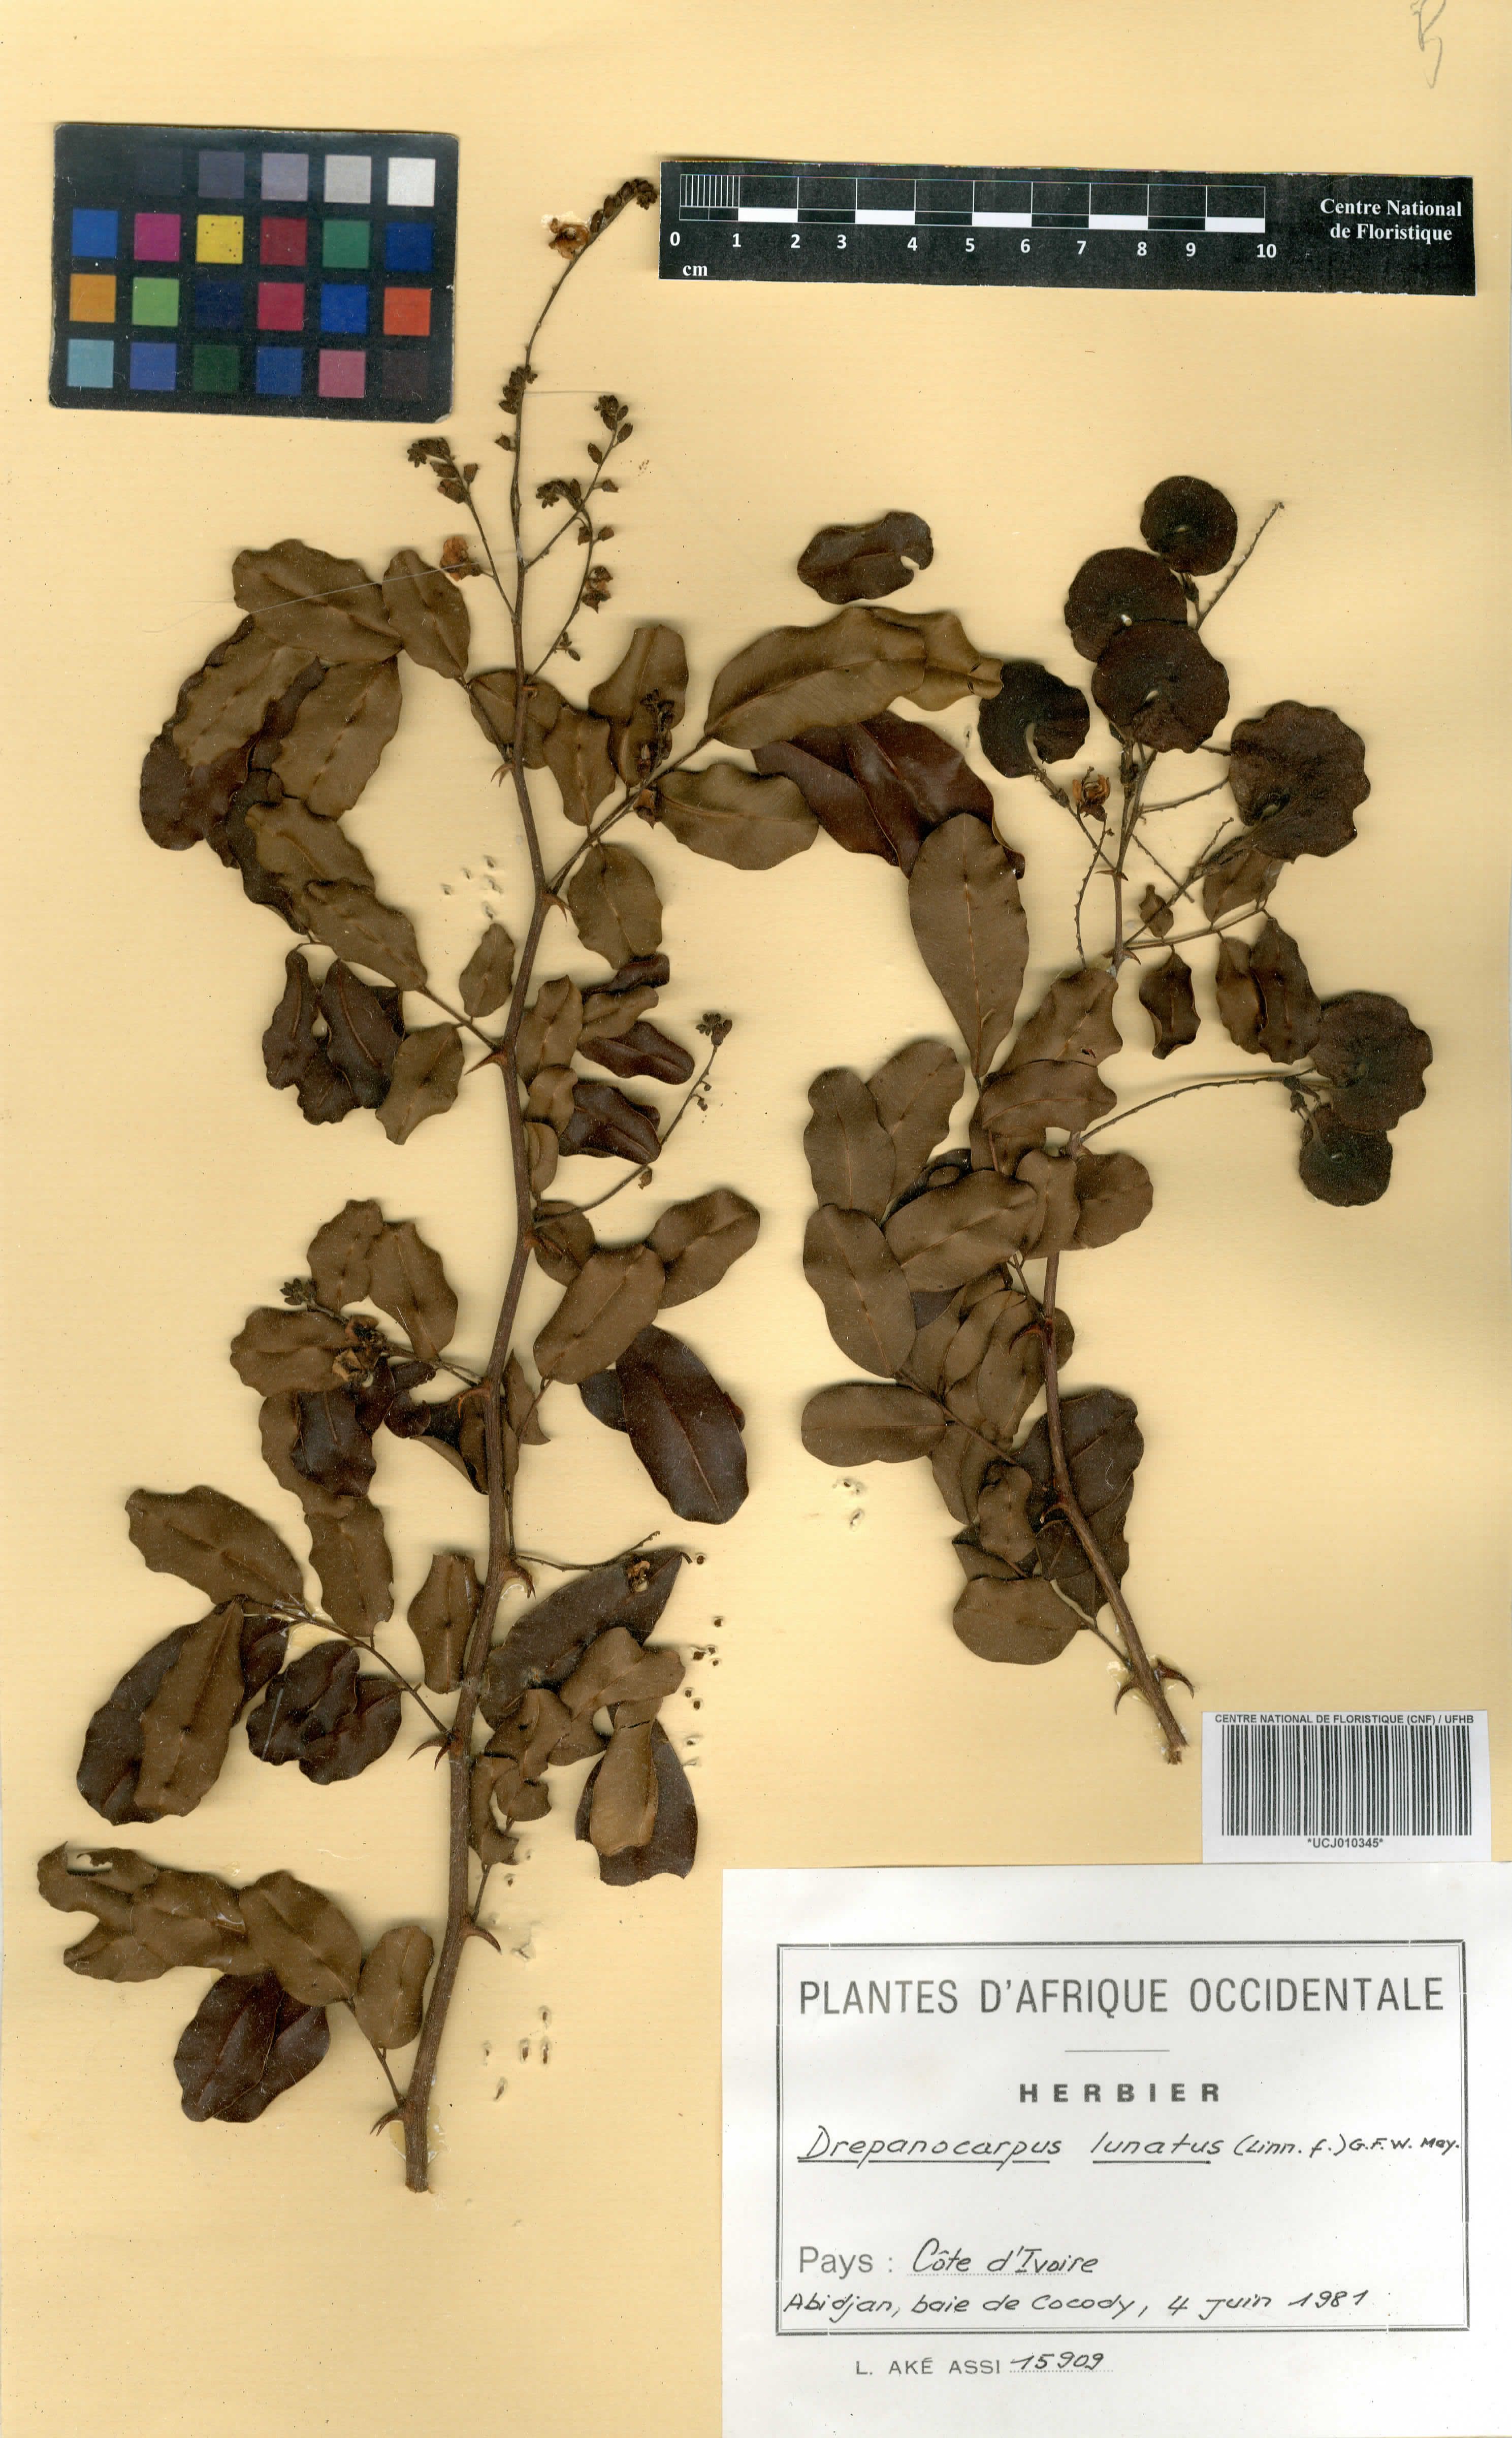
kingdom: Plantae
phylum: Tracheophyta
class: Magnoliopsida
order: Fabales
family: Fabaceae
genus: Machaerium
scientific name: Machaerium lunatum
